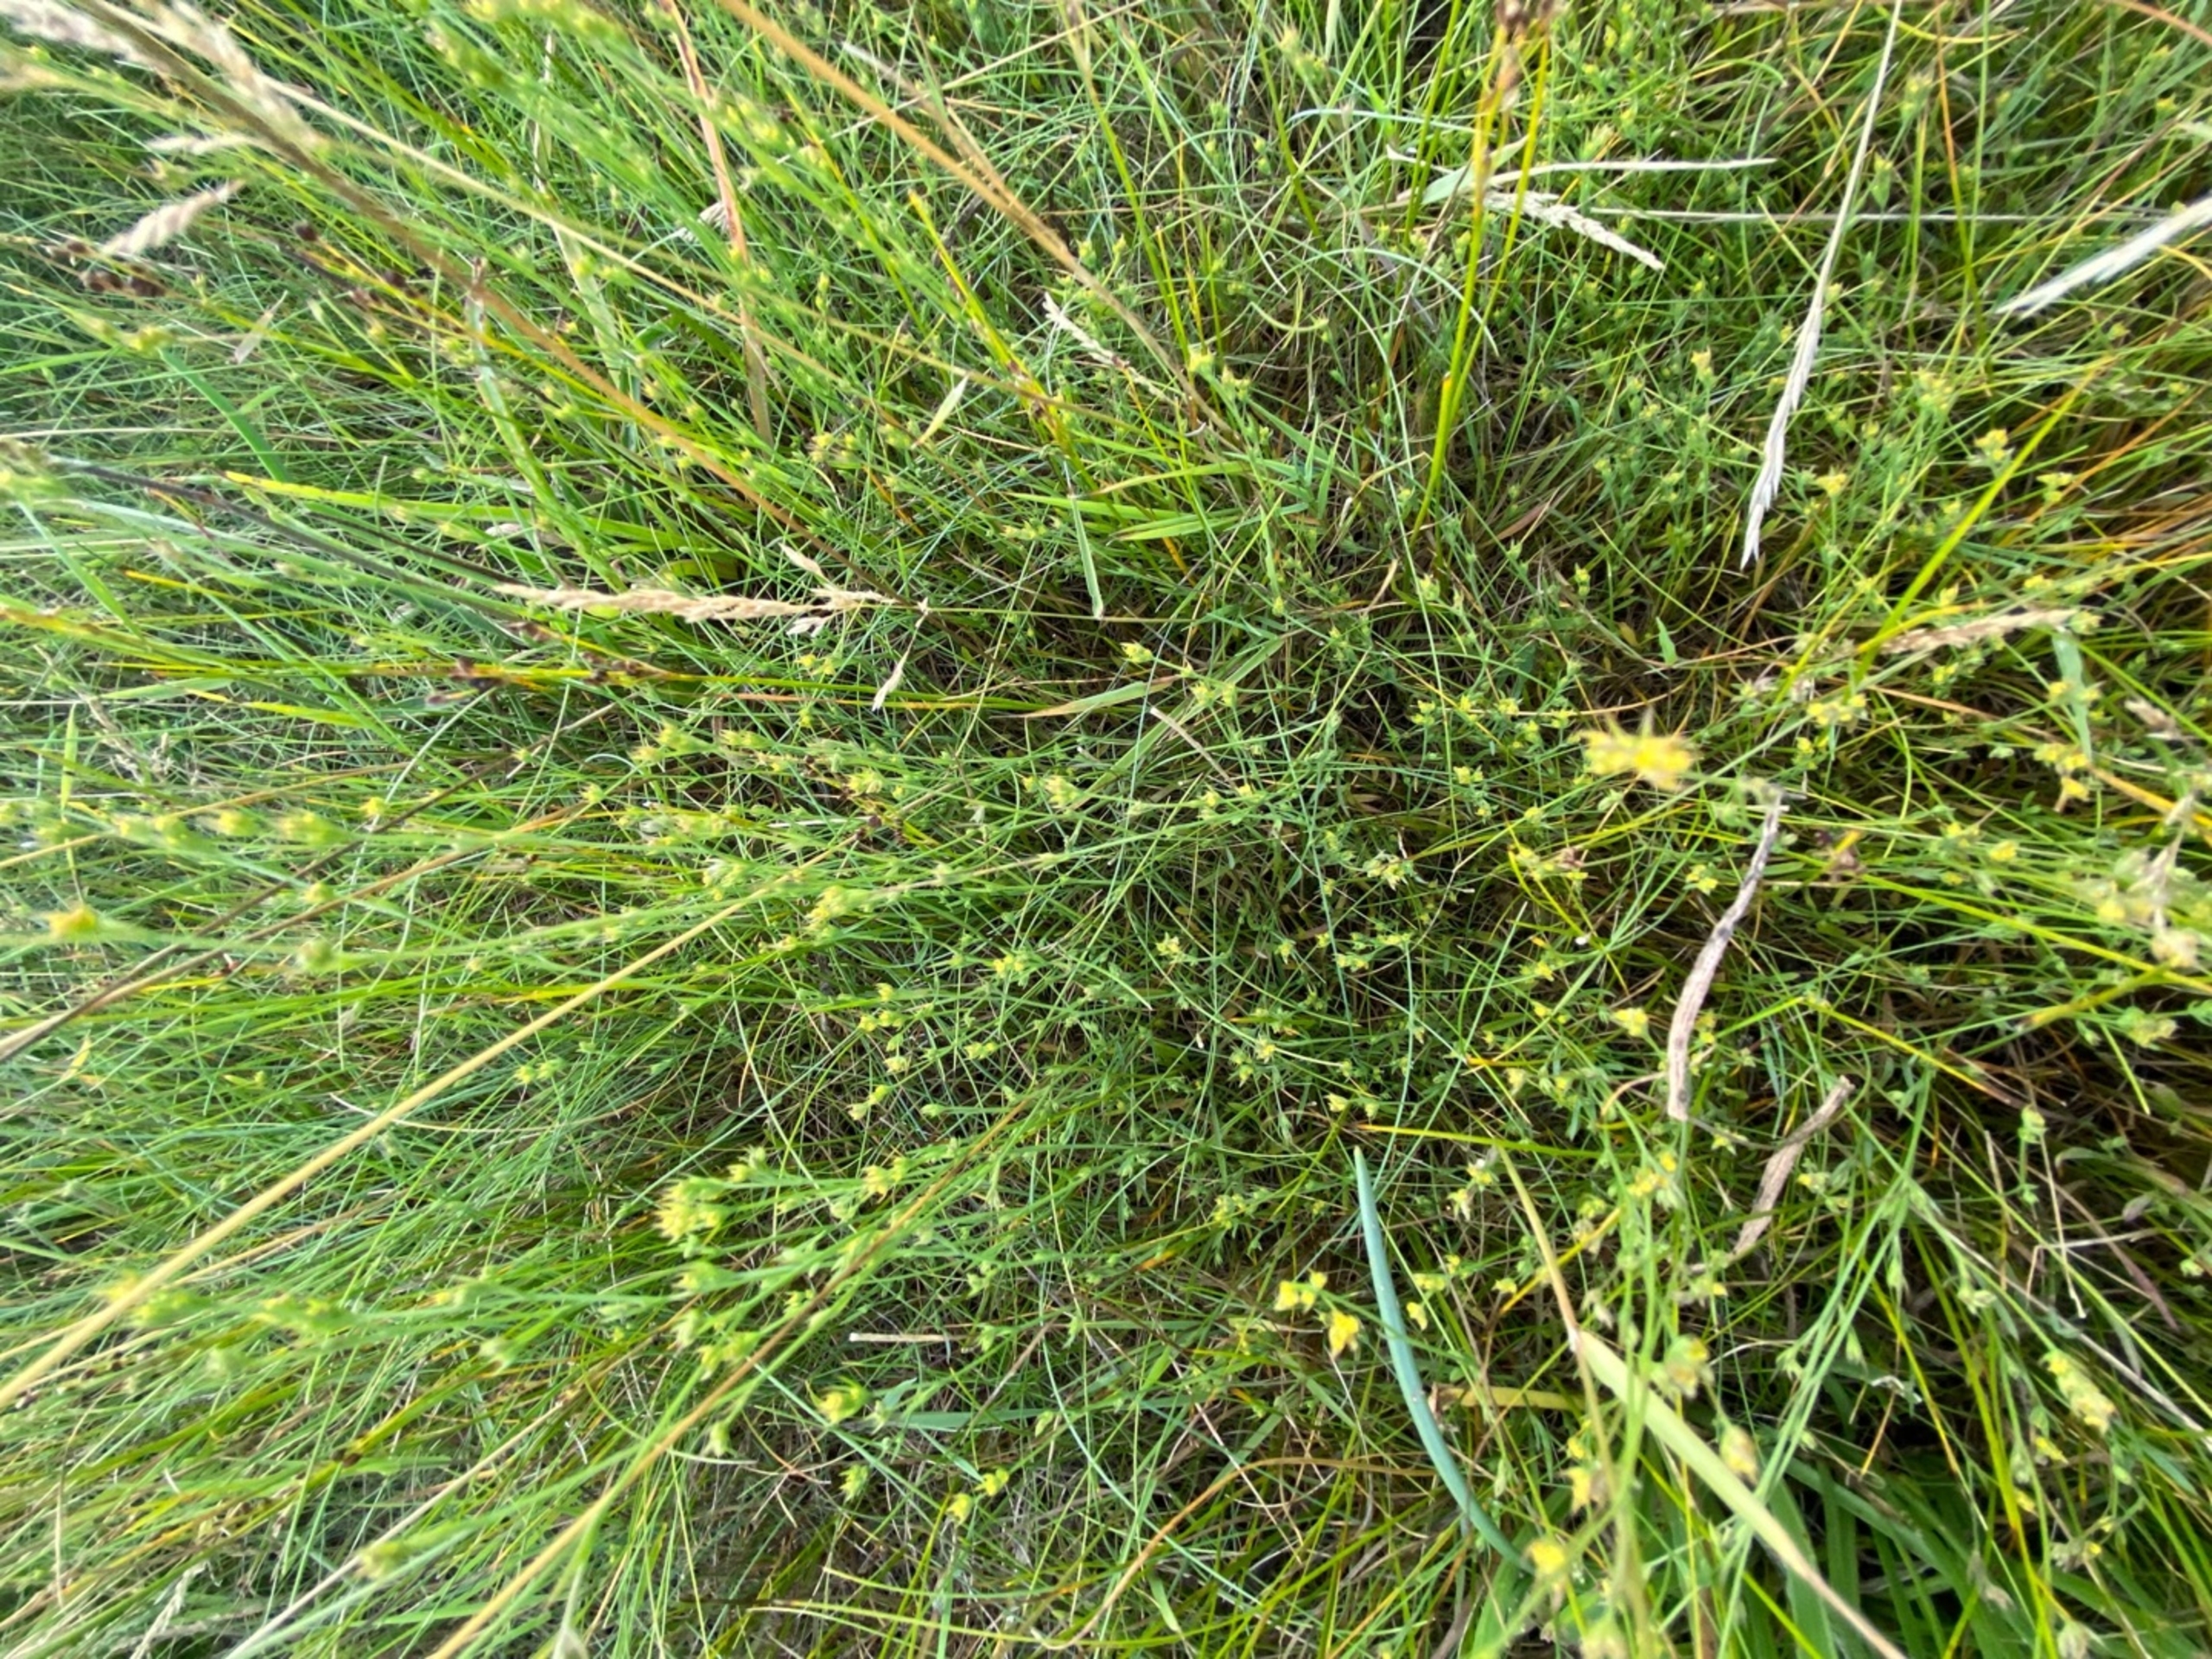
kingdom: Plantae
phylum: Tracheophyta
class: Magnoliopsida
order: Apiales
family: Apiaceae
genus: Bupleurum
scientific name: Bupleurum tenuissimum
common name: Smalbladet hareøre
